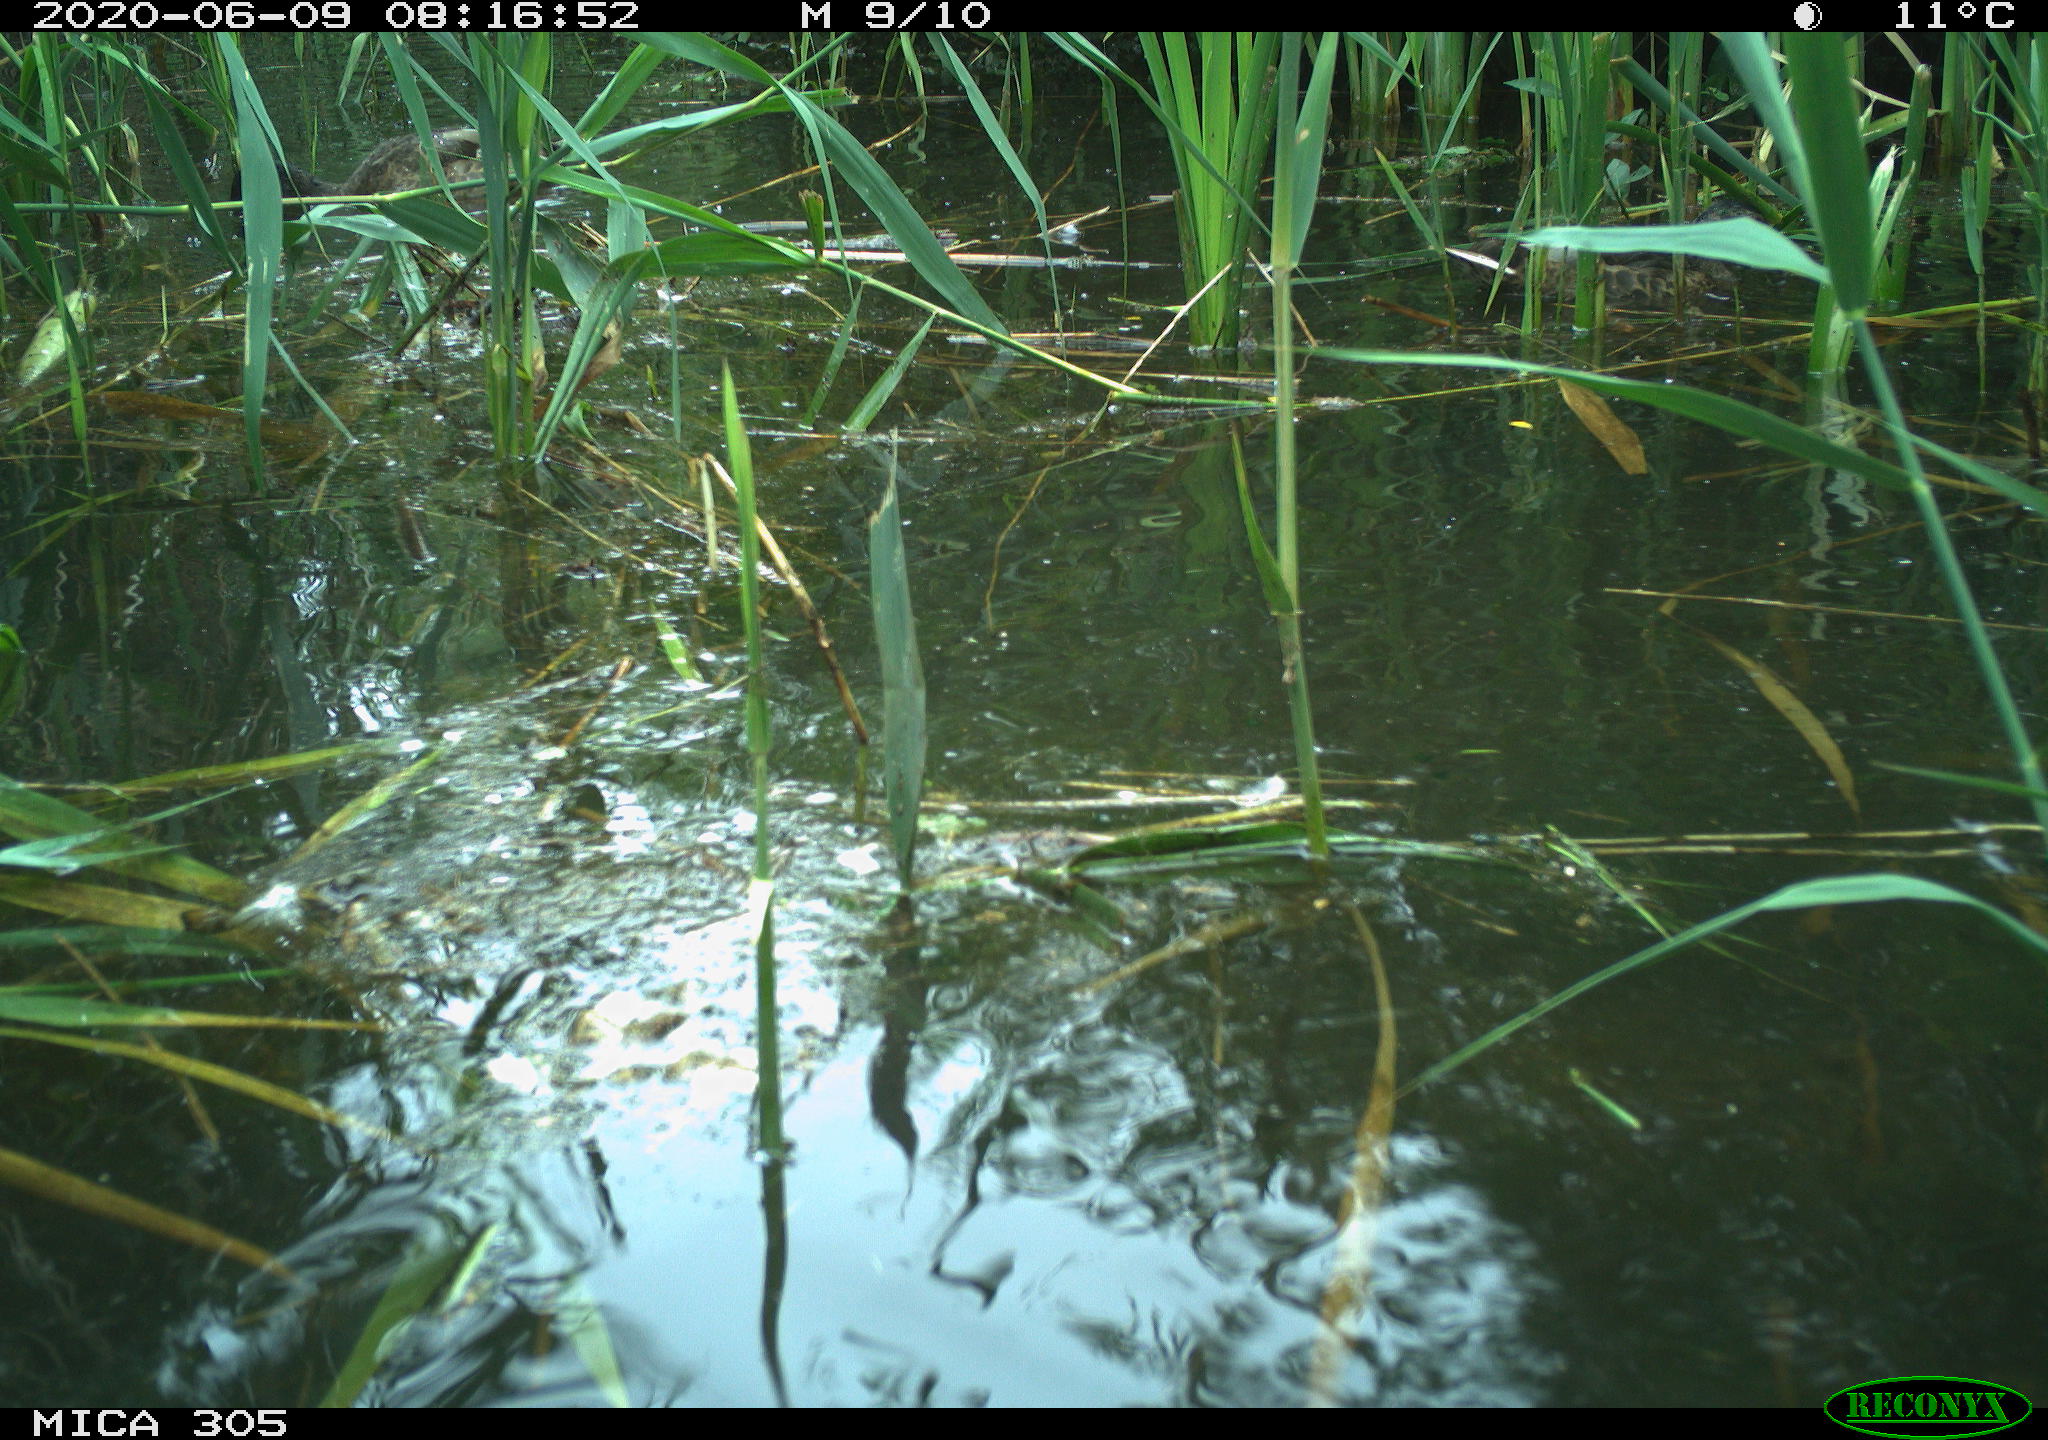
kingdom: Animalia
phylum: Chordata
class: Aves
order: Anseriformes
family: Anatidae
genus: Anas
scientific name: Anas platyrhynchos
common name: Mallard
